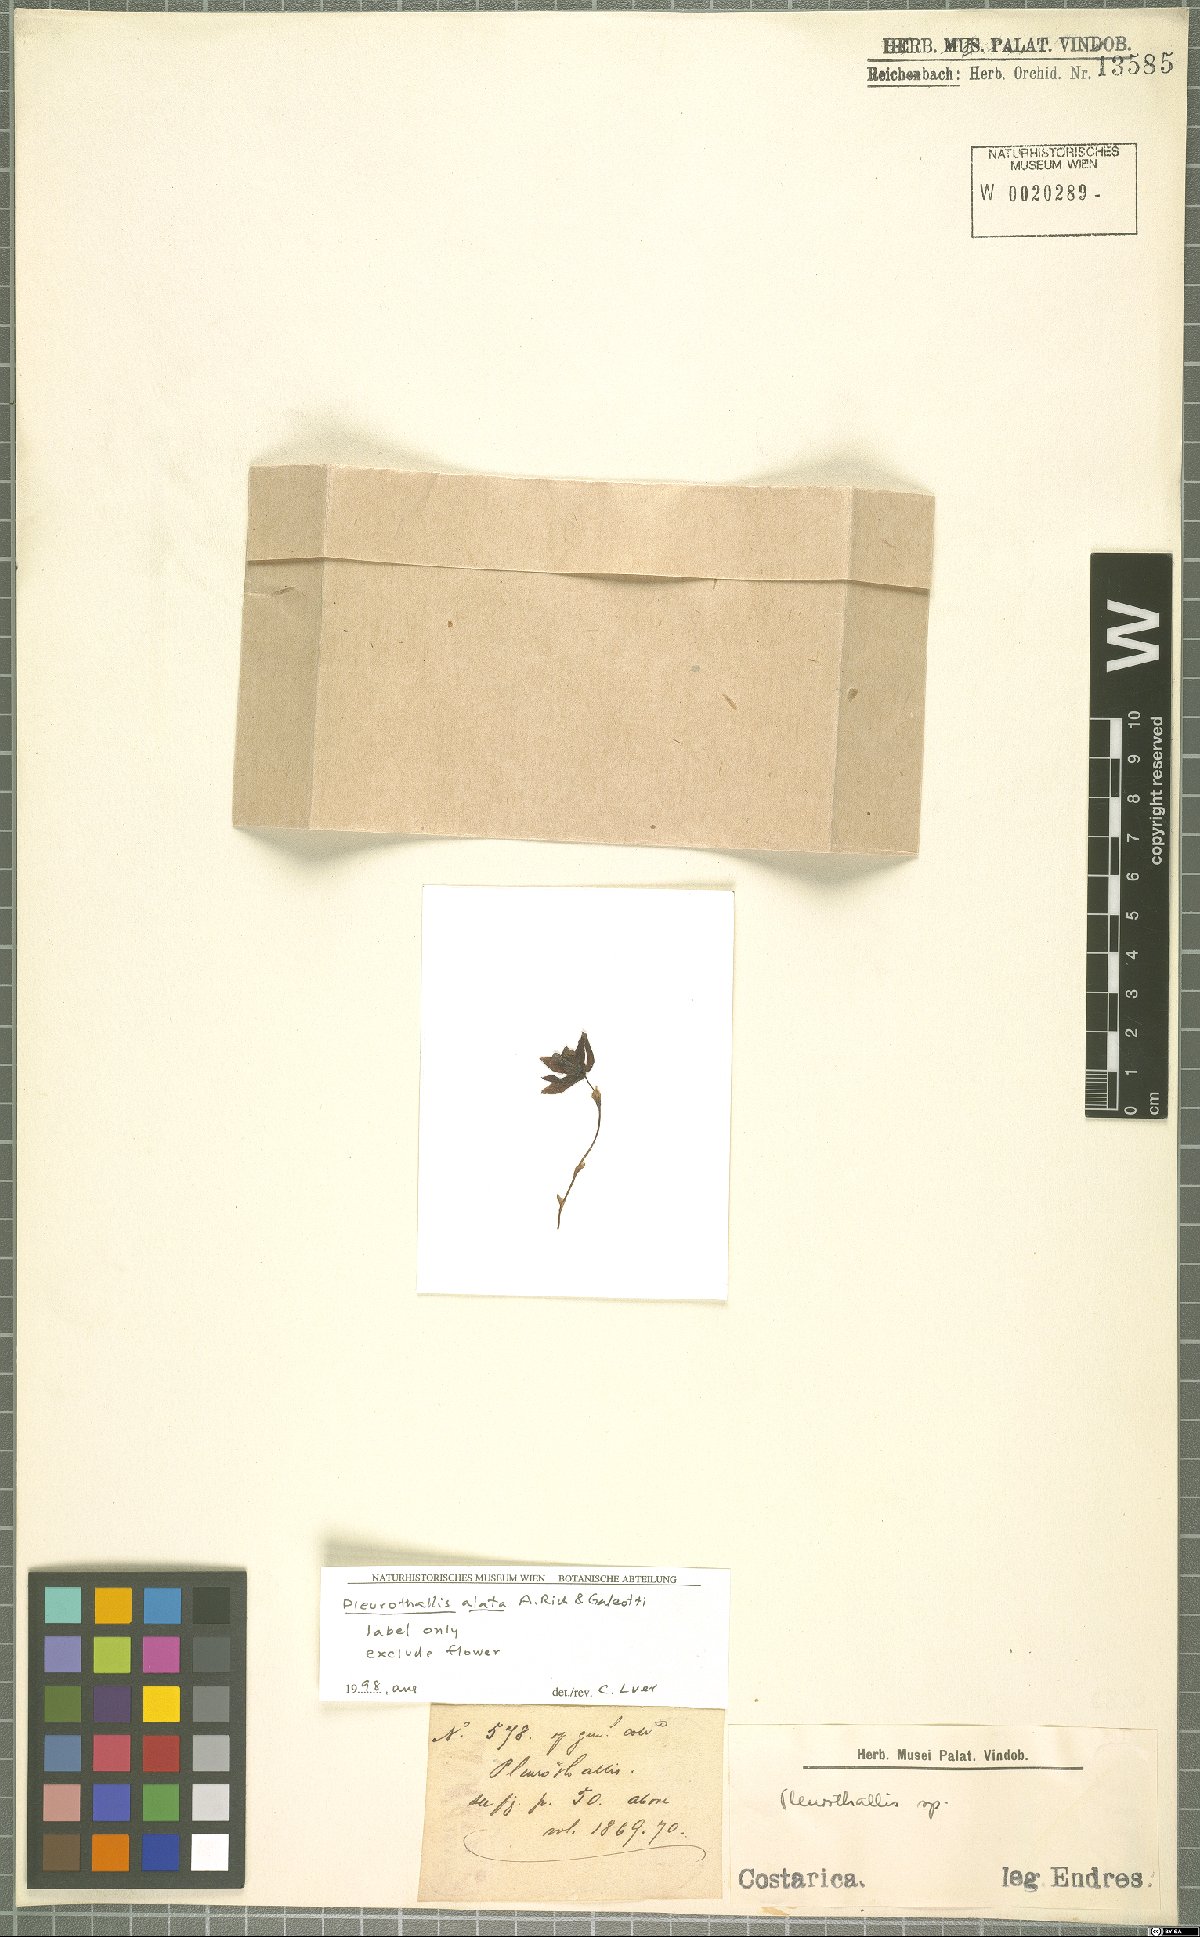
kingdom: Plantae
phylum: Tracheophyta
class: Liliopsida
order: Asparagales
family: Orchidaceae
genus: Muscarella
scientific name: Muscarella marginata
